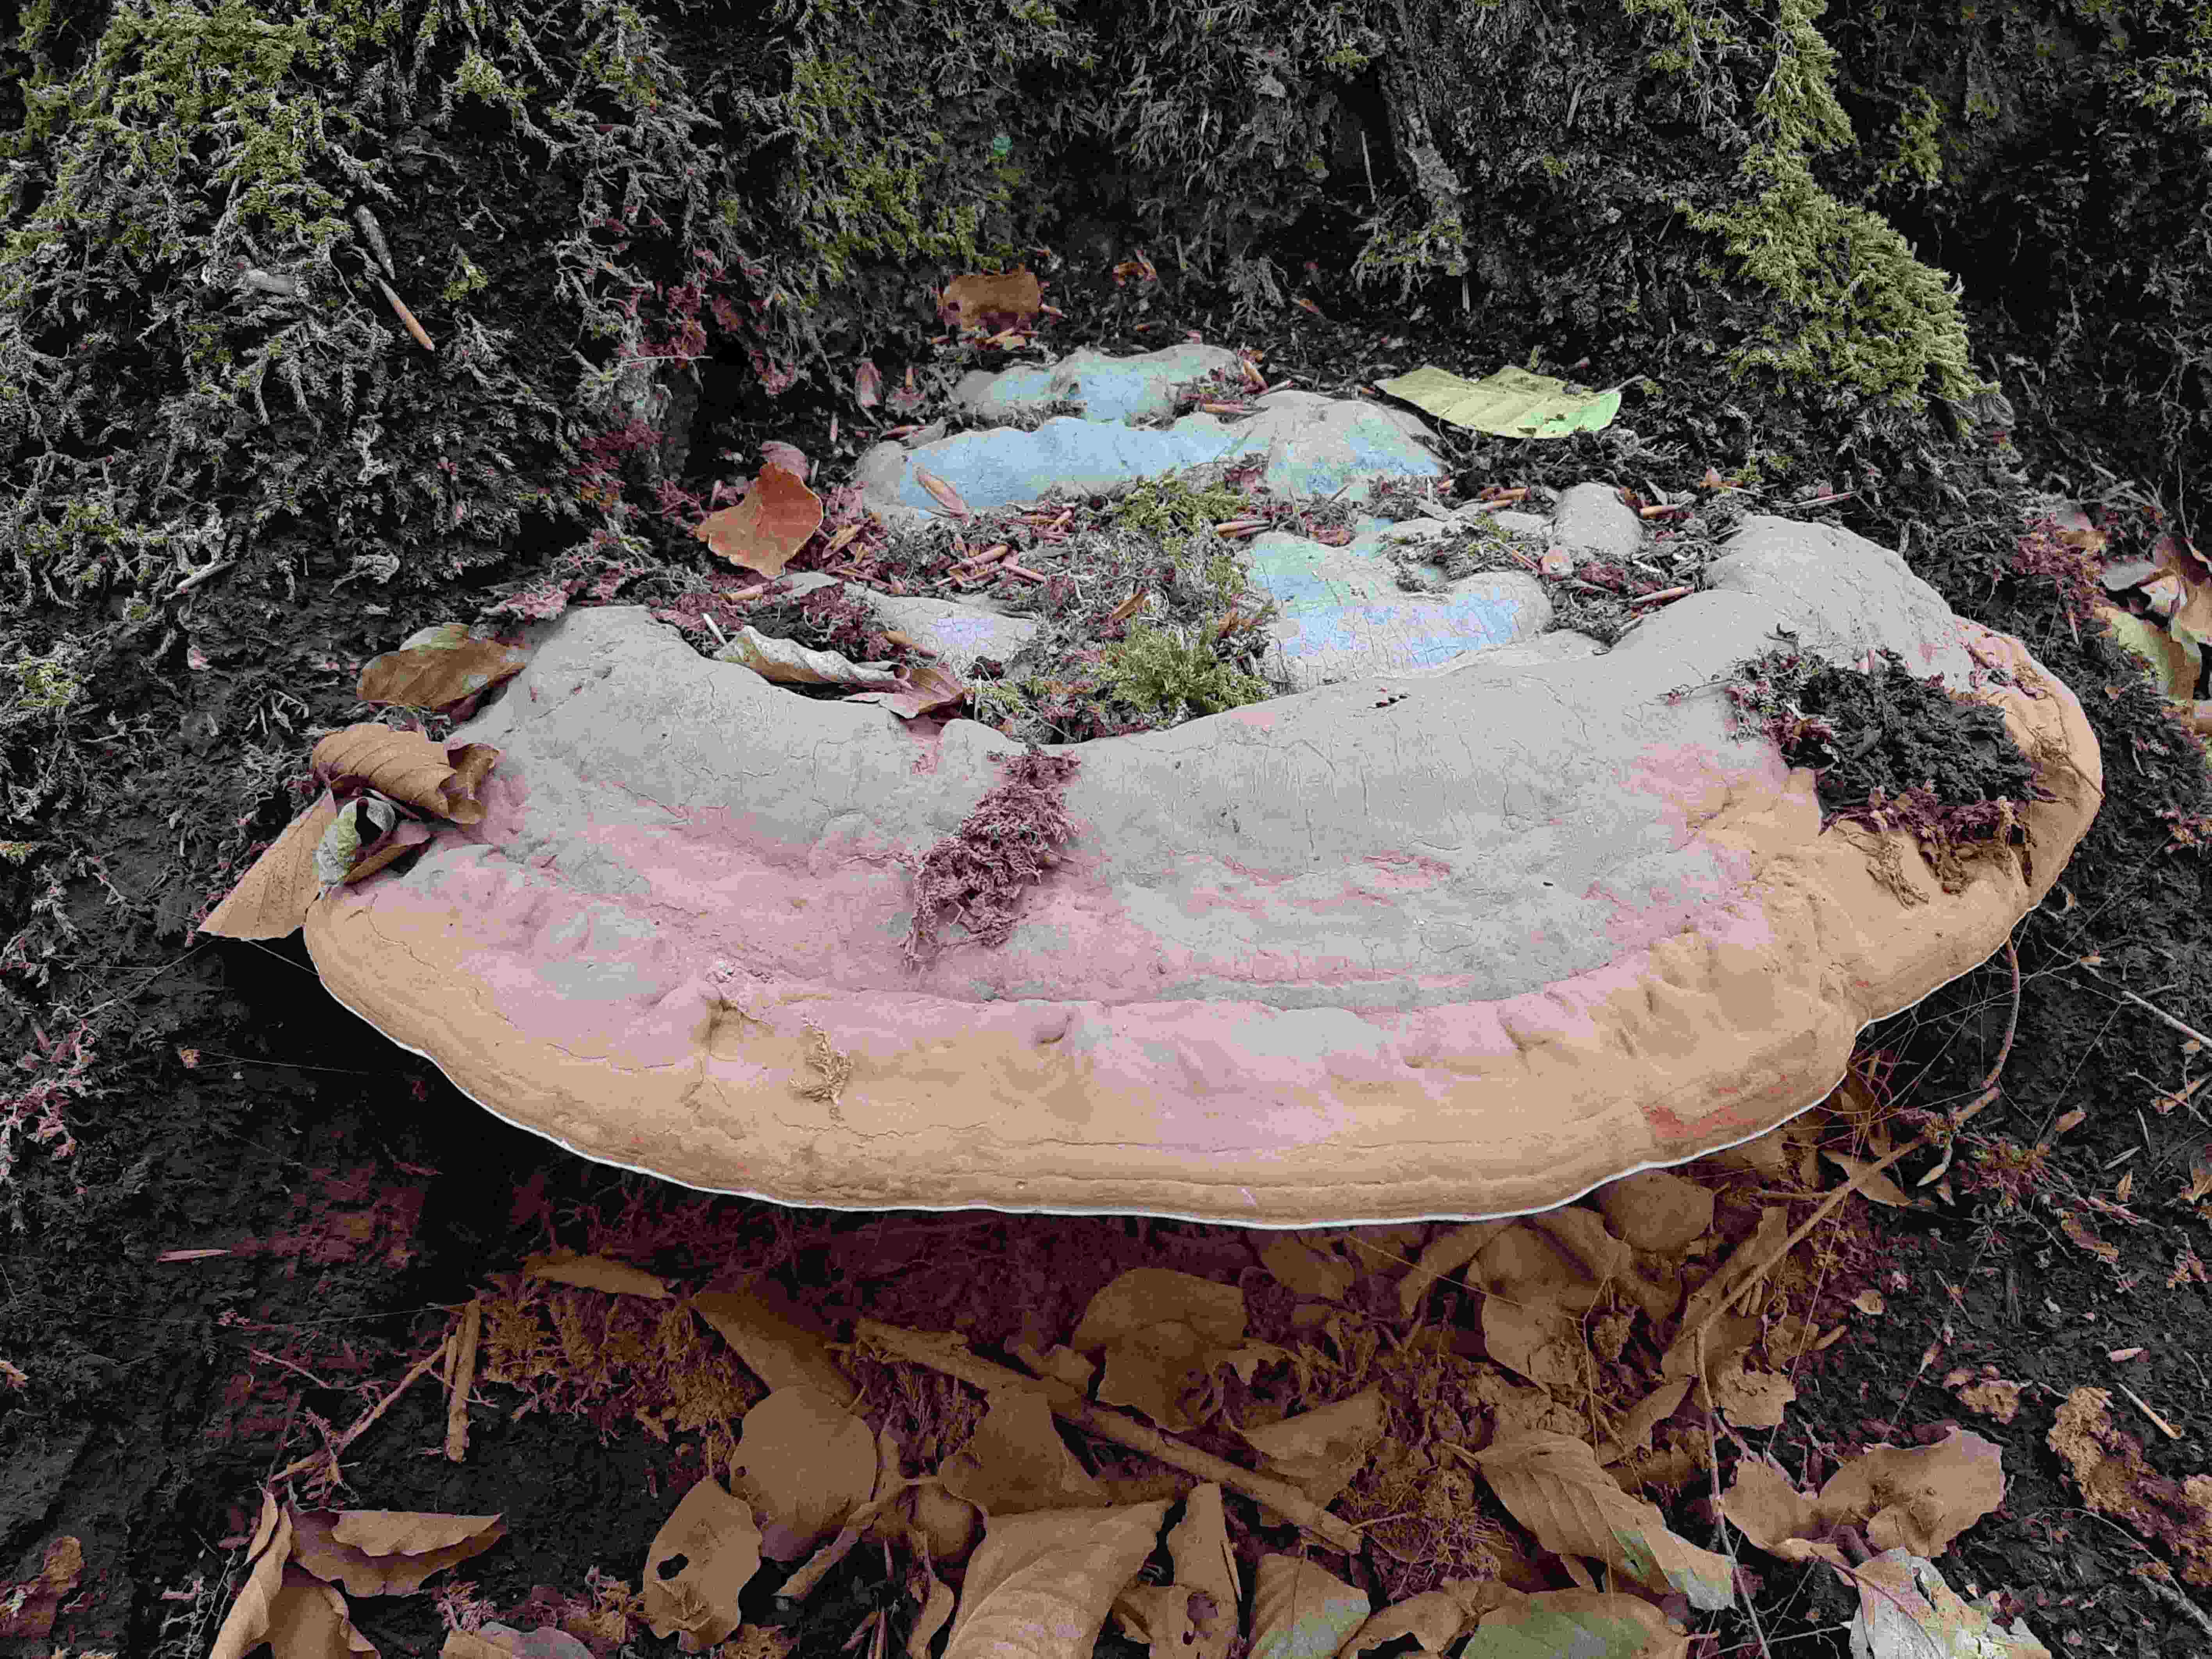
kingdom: Fungi
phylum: Basidiomycota
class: Agaricomycetes
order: Polyporales
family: Polyporaceae
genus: Ganoderma
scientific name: Ganoderma applanatum
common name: flad lakporesvamp
